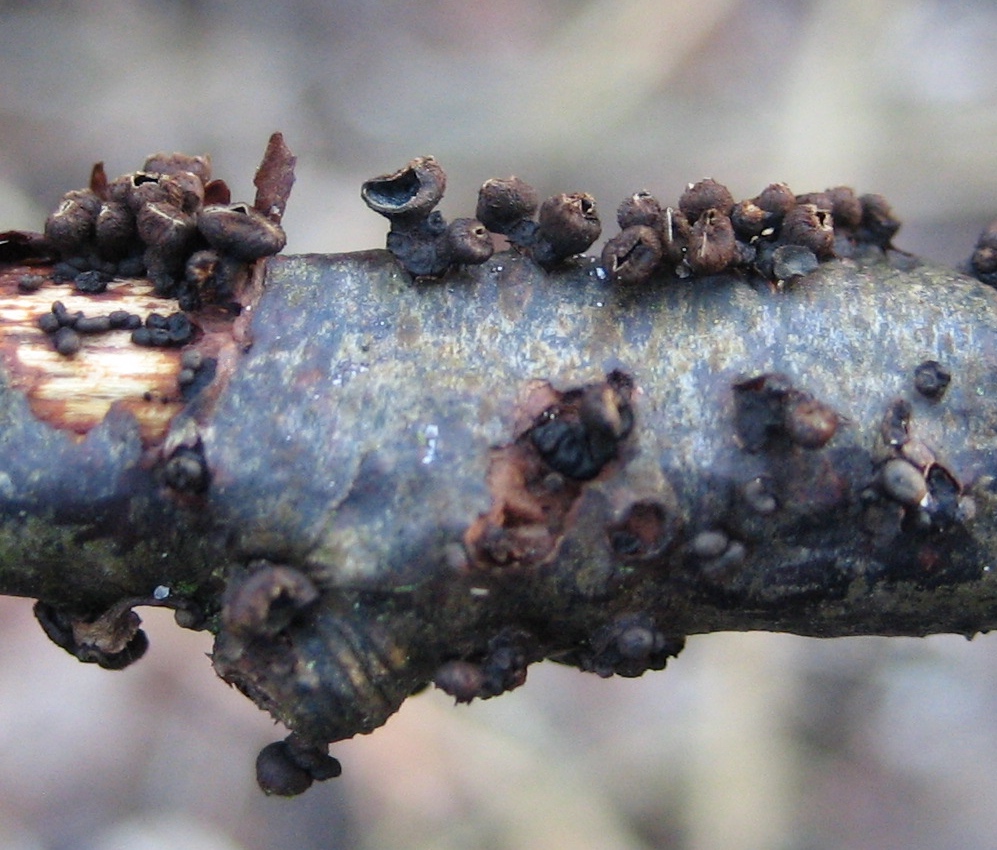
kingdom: Fungi
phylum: Ascomycota
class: Leotiomycetes
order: Helotiales
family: Godroniaceae
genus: Godronia
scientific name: Godronia uberiformis
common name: solbær-urneskive
